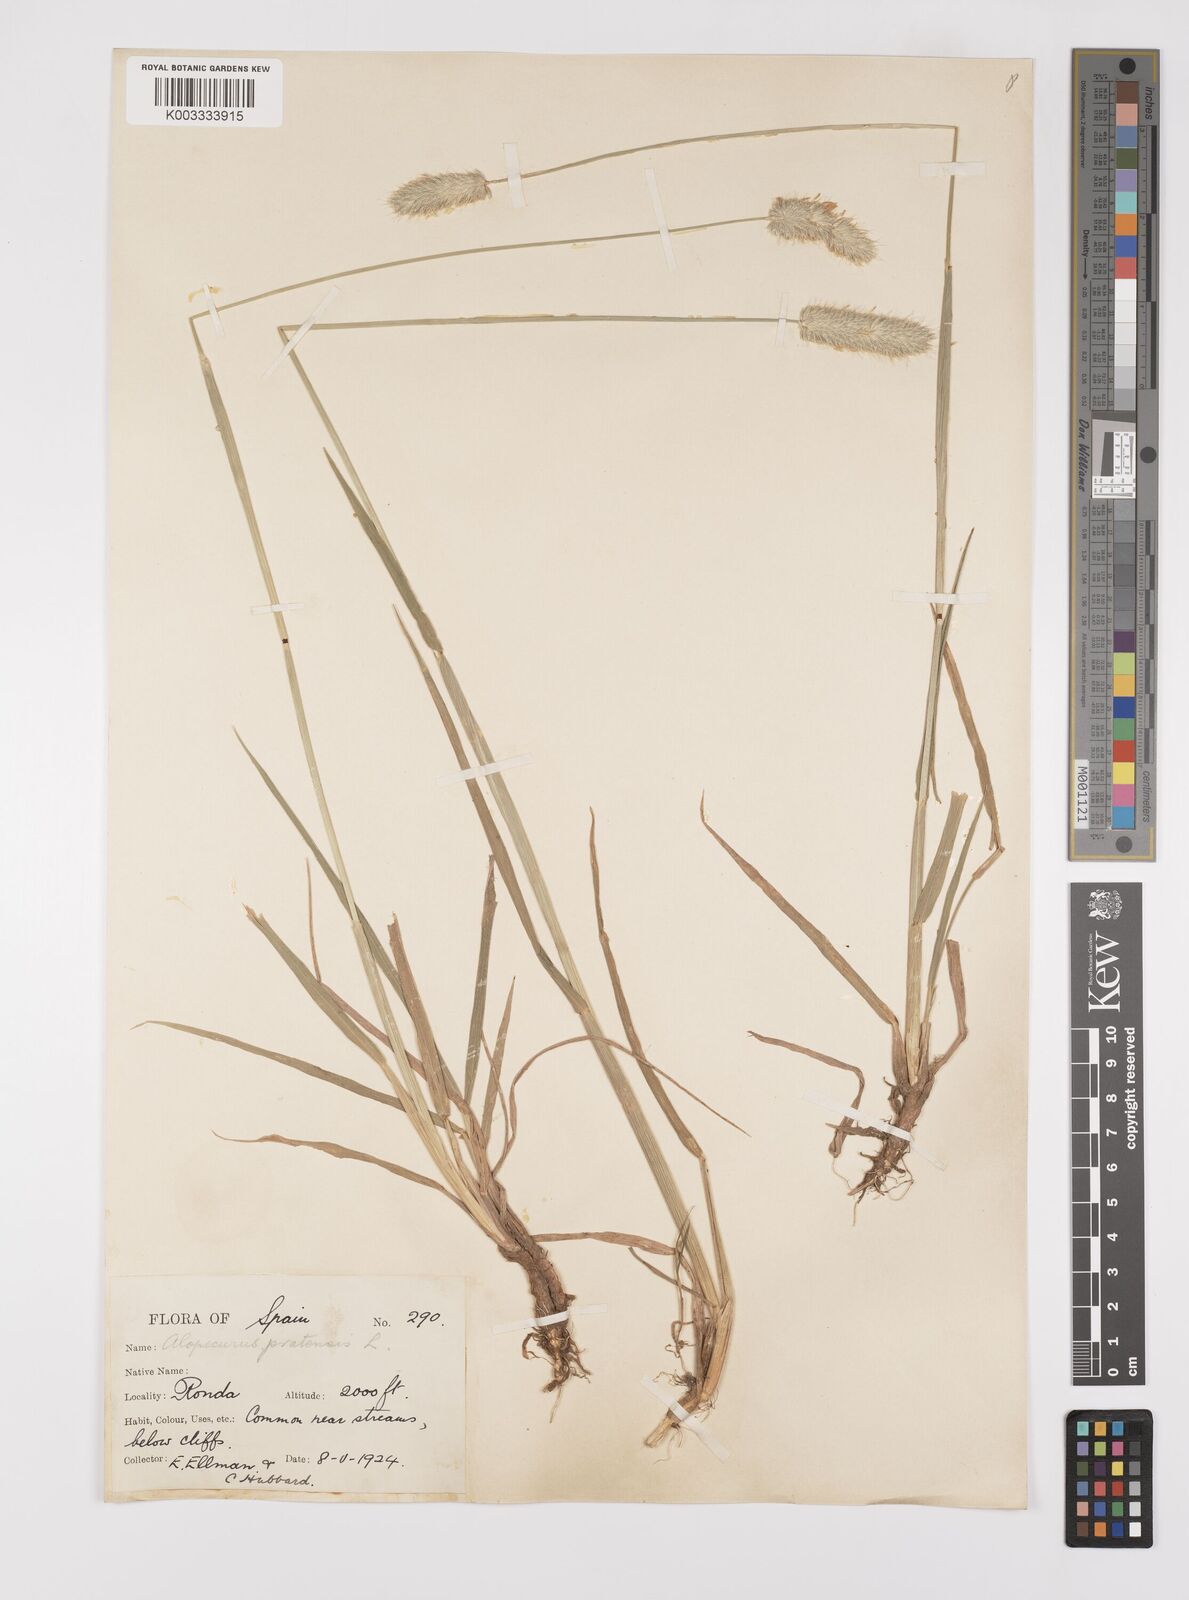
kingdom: Plantae
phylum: Tracheophyta
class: Liliopsida
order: Poales
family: Poaceae
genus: Alopecurus
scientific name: Alopecurus pratensis
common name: Meadow foxtail
